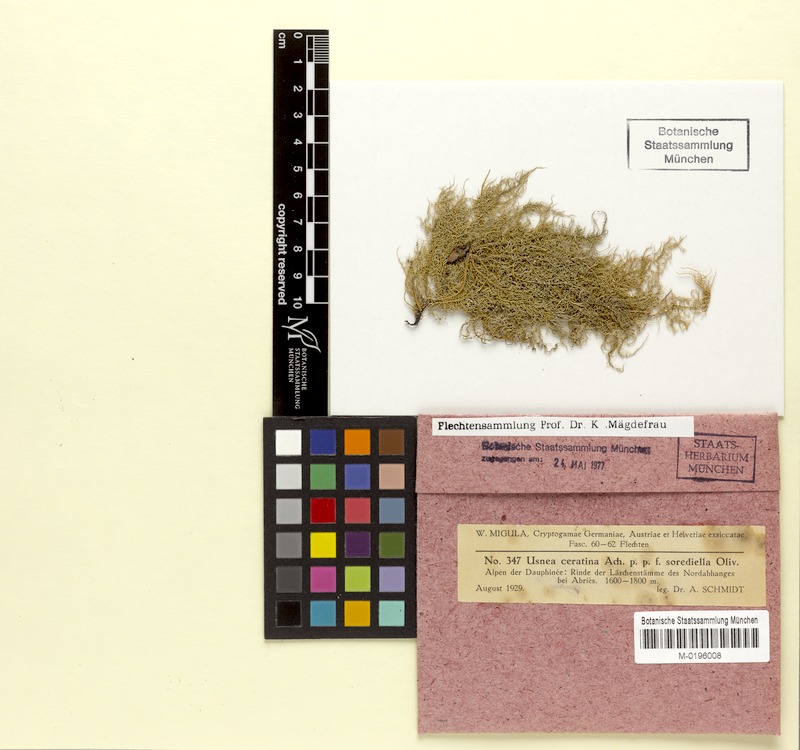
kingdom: Fungi
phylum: Ascomycota
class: Lecanoromycetes
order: Lecanorales
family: Parmeliaceae
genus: Usnea
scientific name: Usnea ceratina
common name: Warty beard lichen
